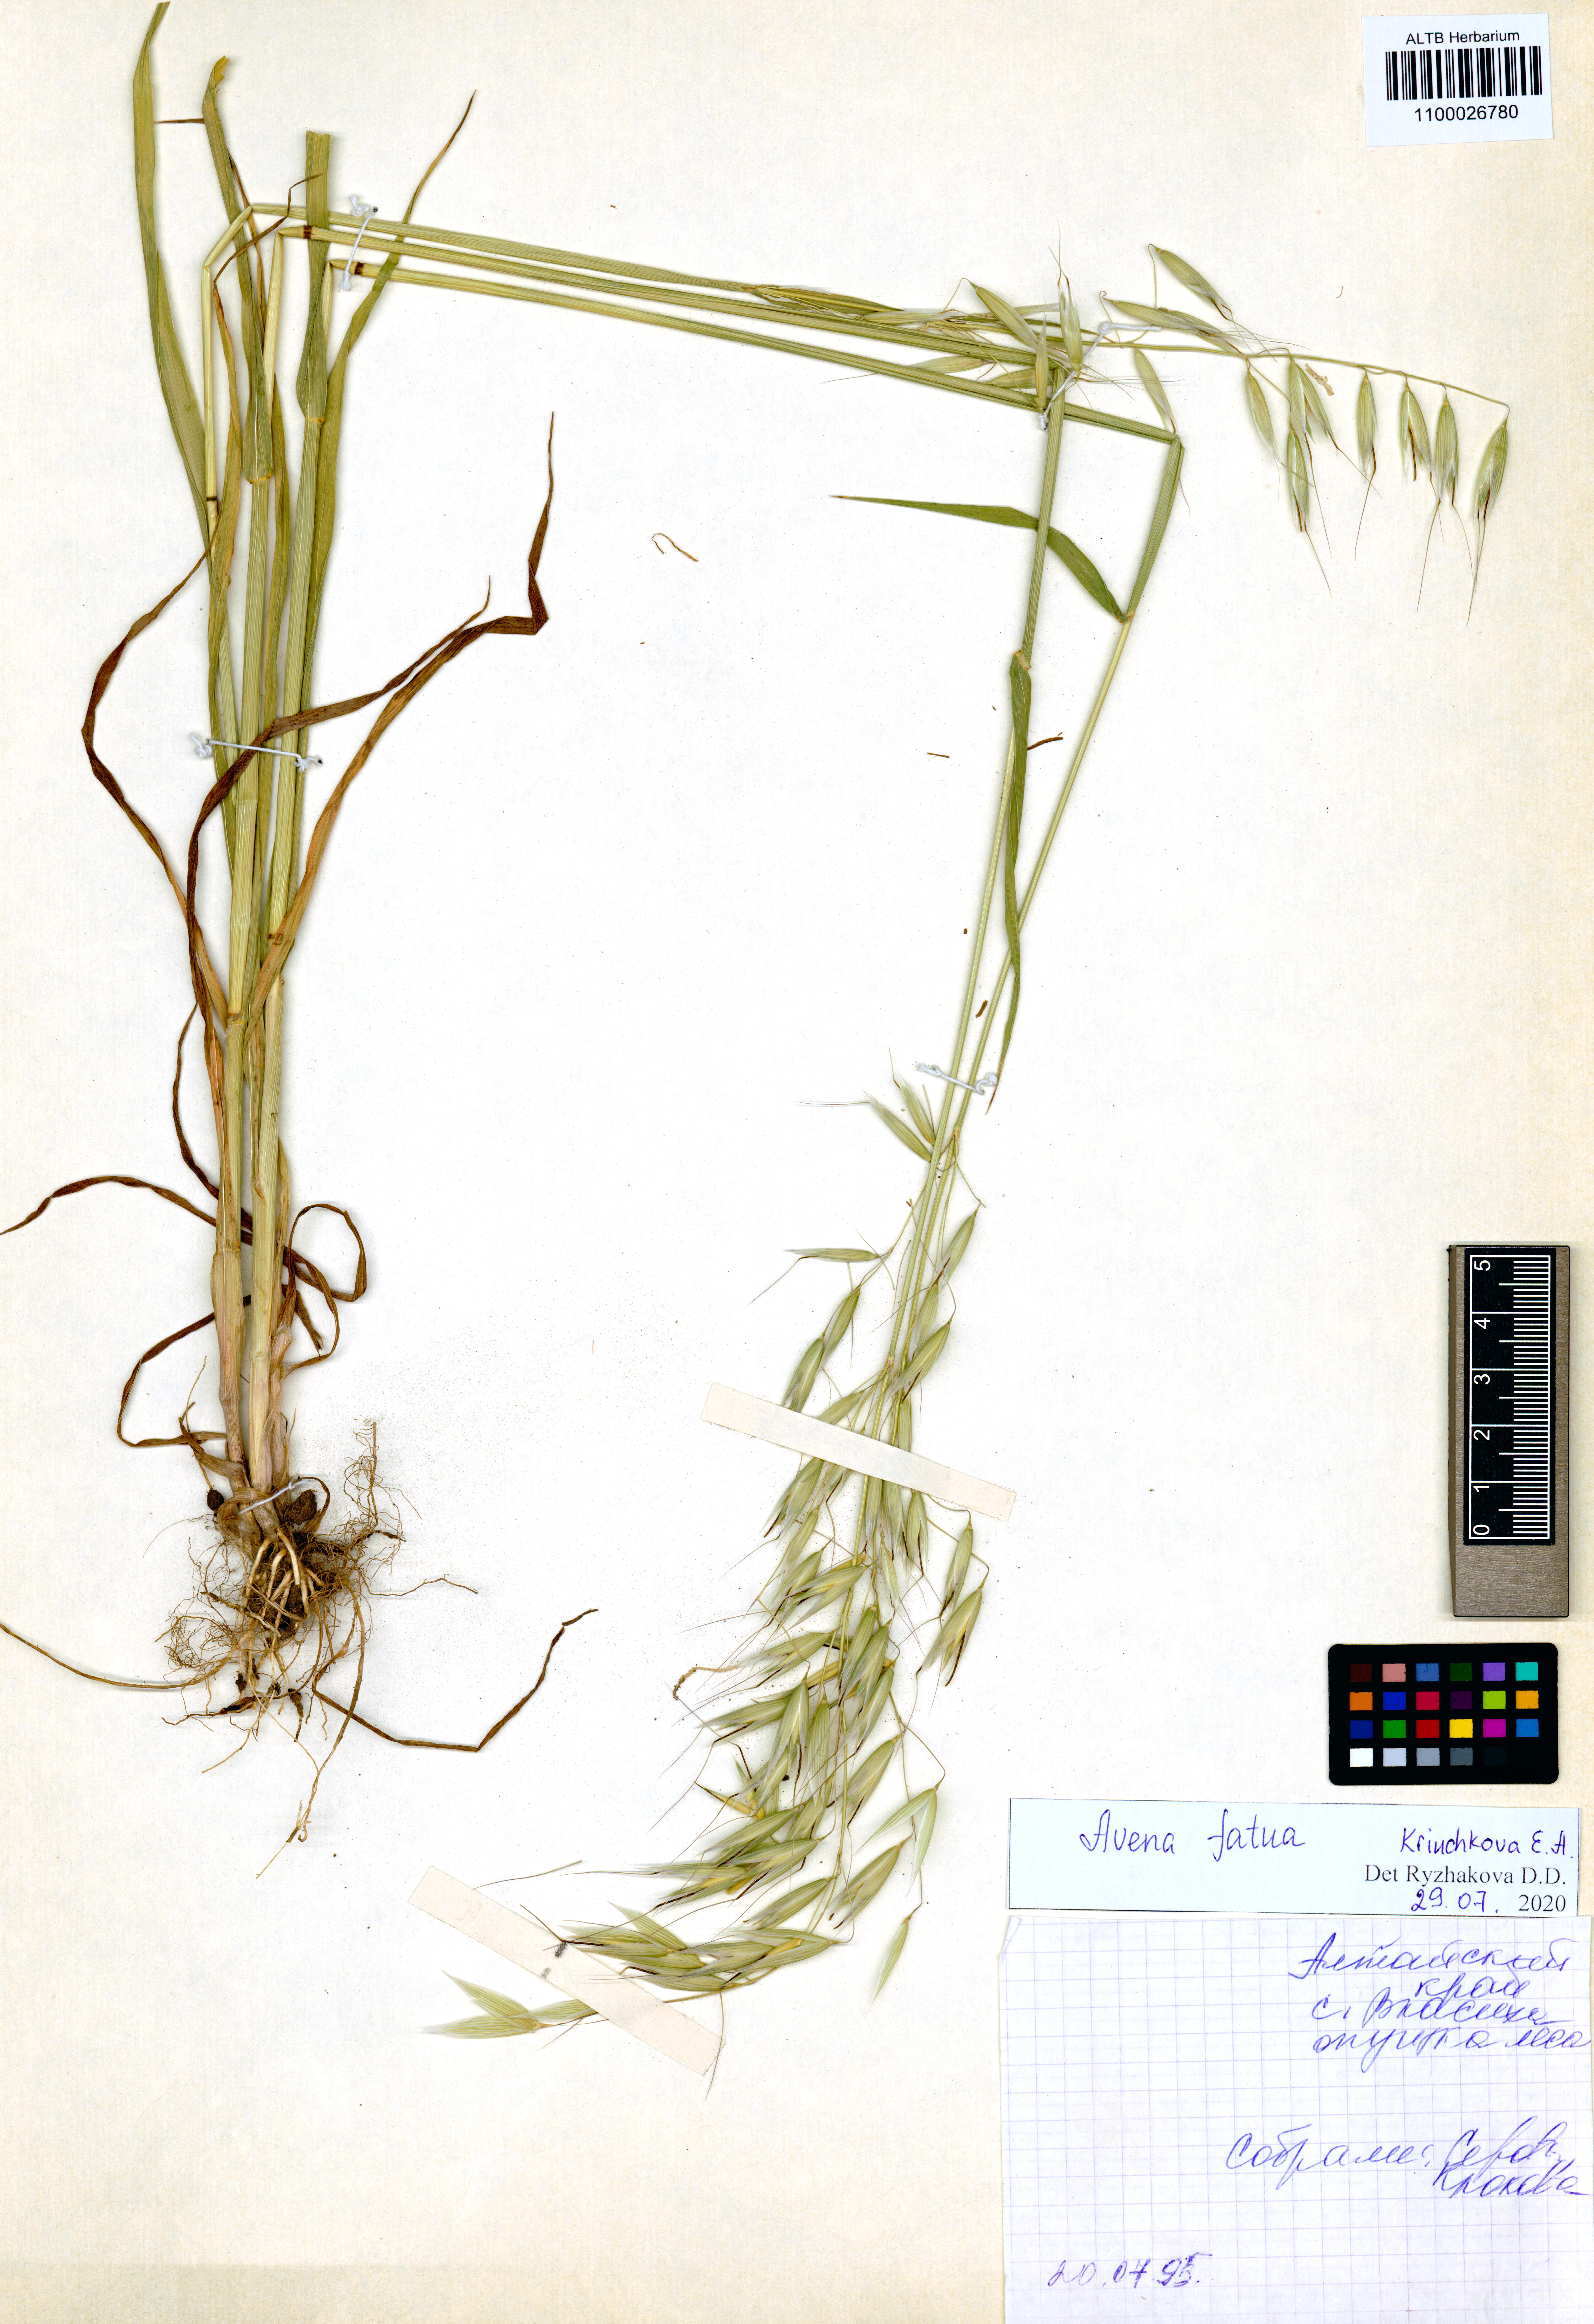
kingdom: Plantae
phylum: Tracheophyta
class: Liliopsida
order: Poales
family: Poaceae
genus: Avena
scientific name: Avena fatua
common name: Wild oat
